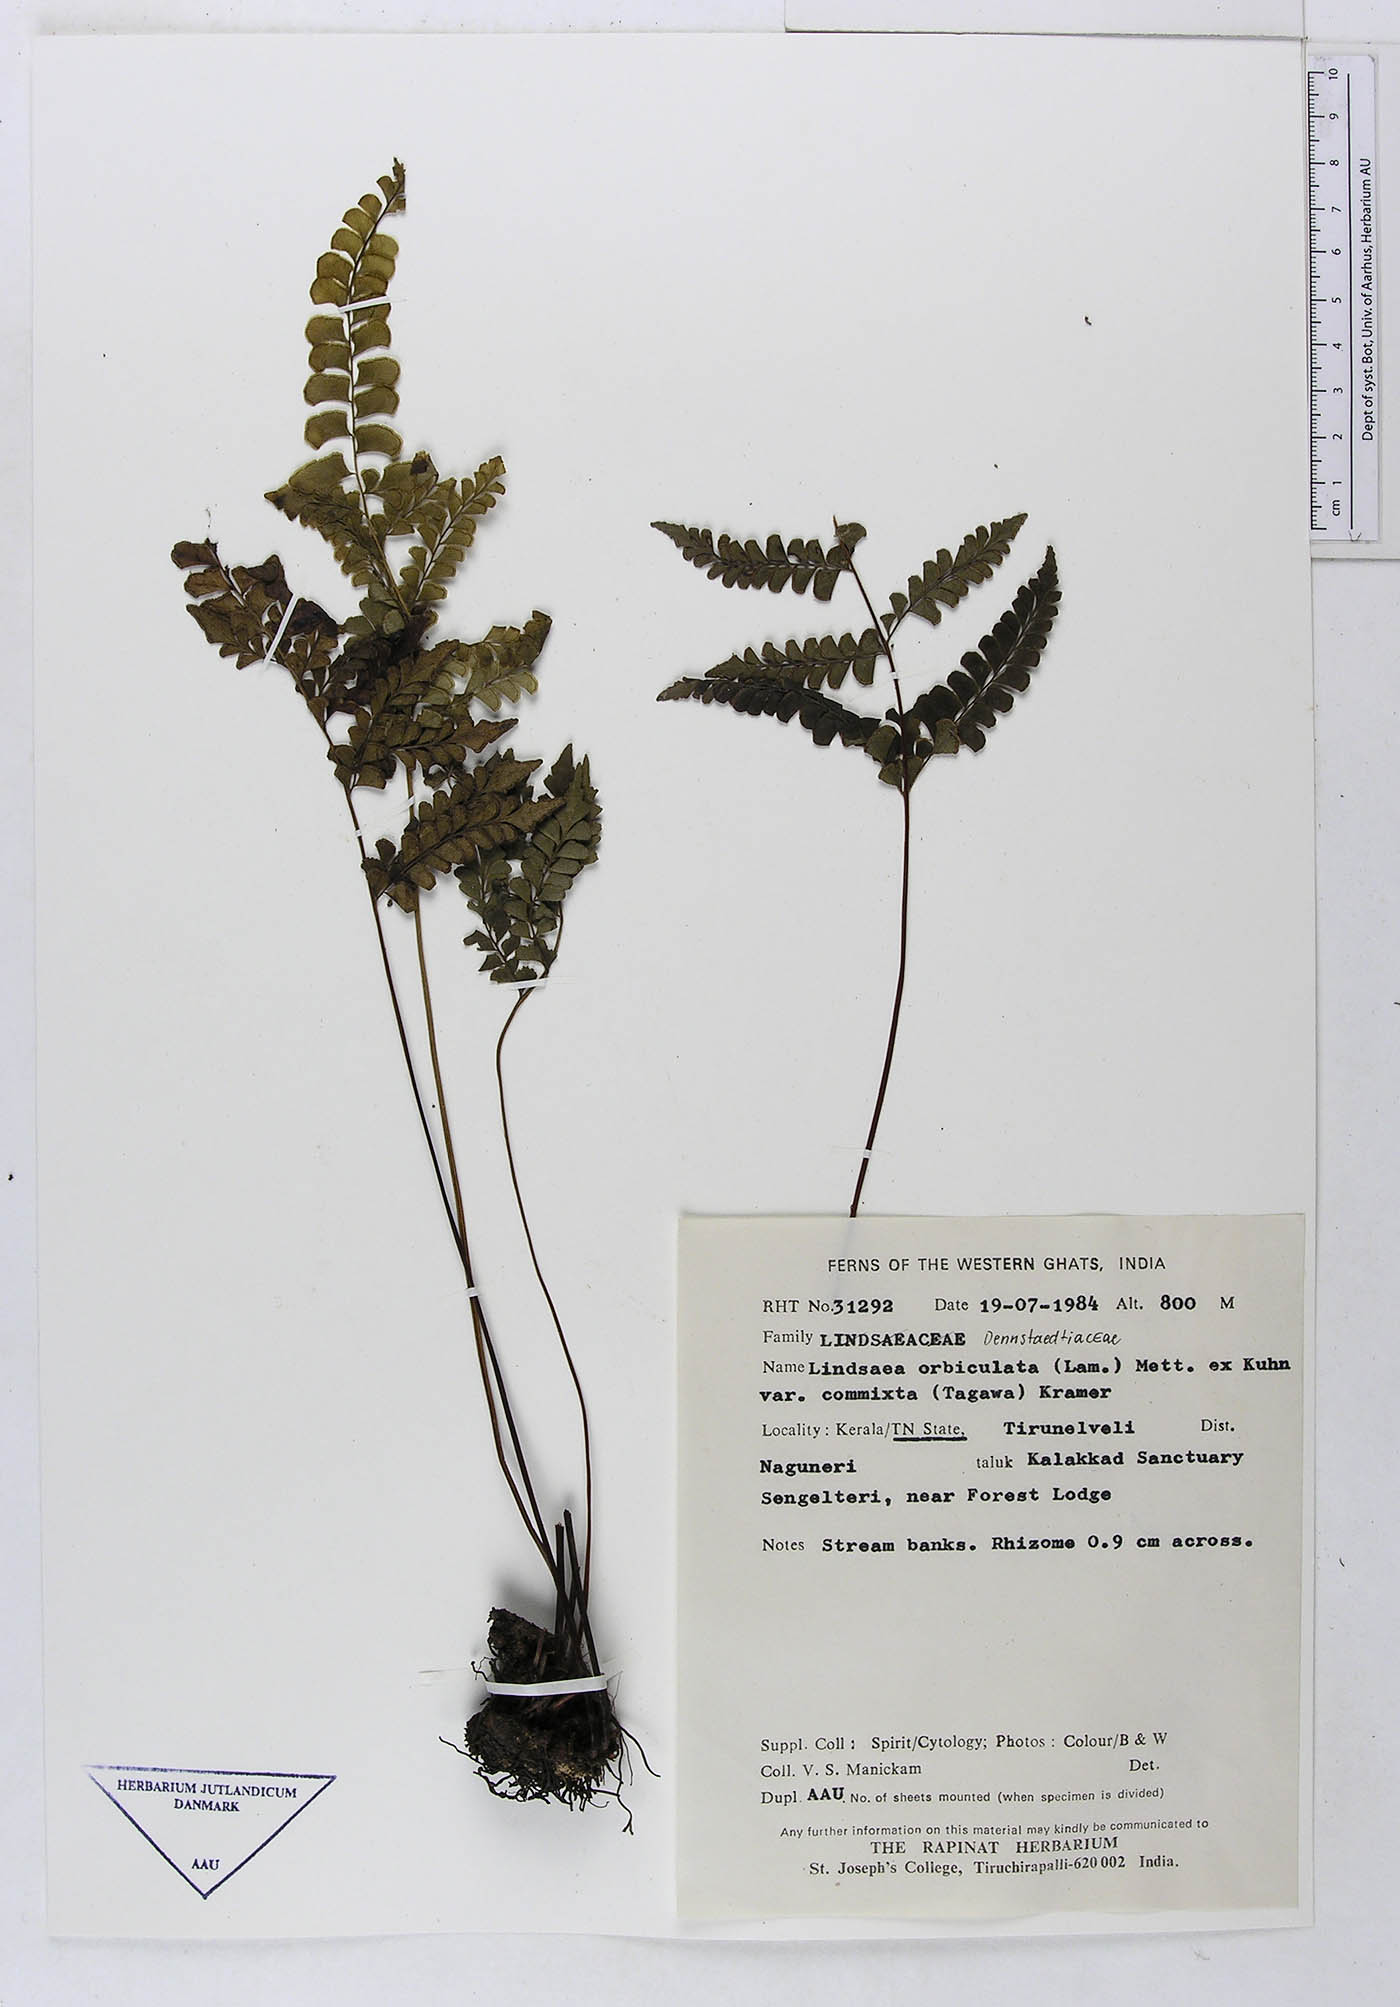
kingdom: Plantae
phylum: Tracheophyta
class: Polypodiopsida
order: Polypodiales
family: Dennstaedtiaceae
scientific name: Dennstaedtiaceae
